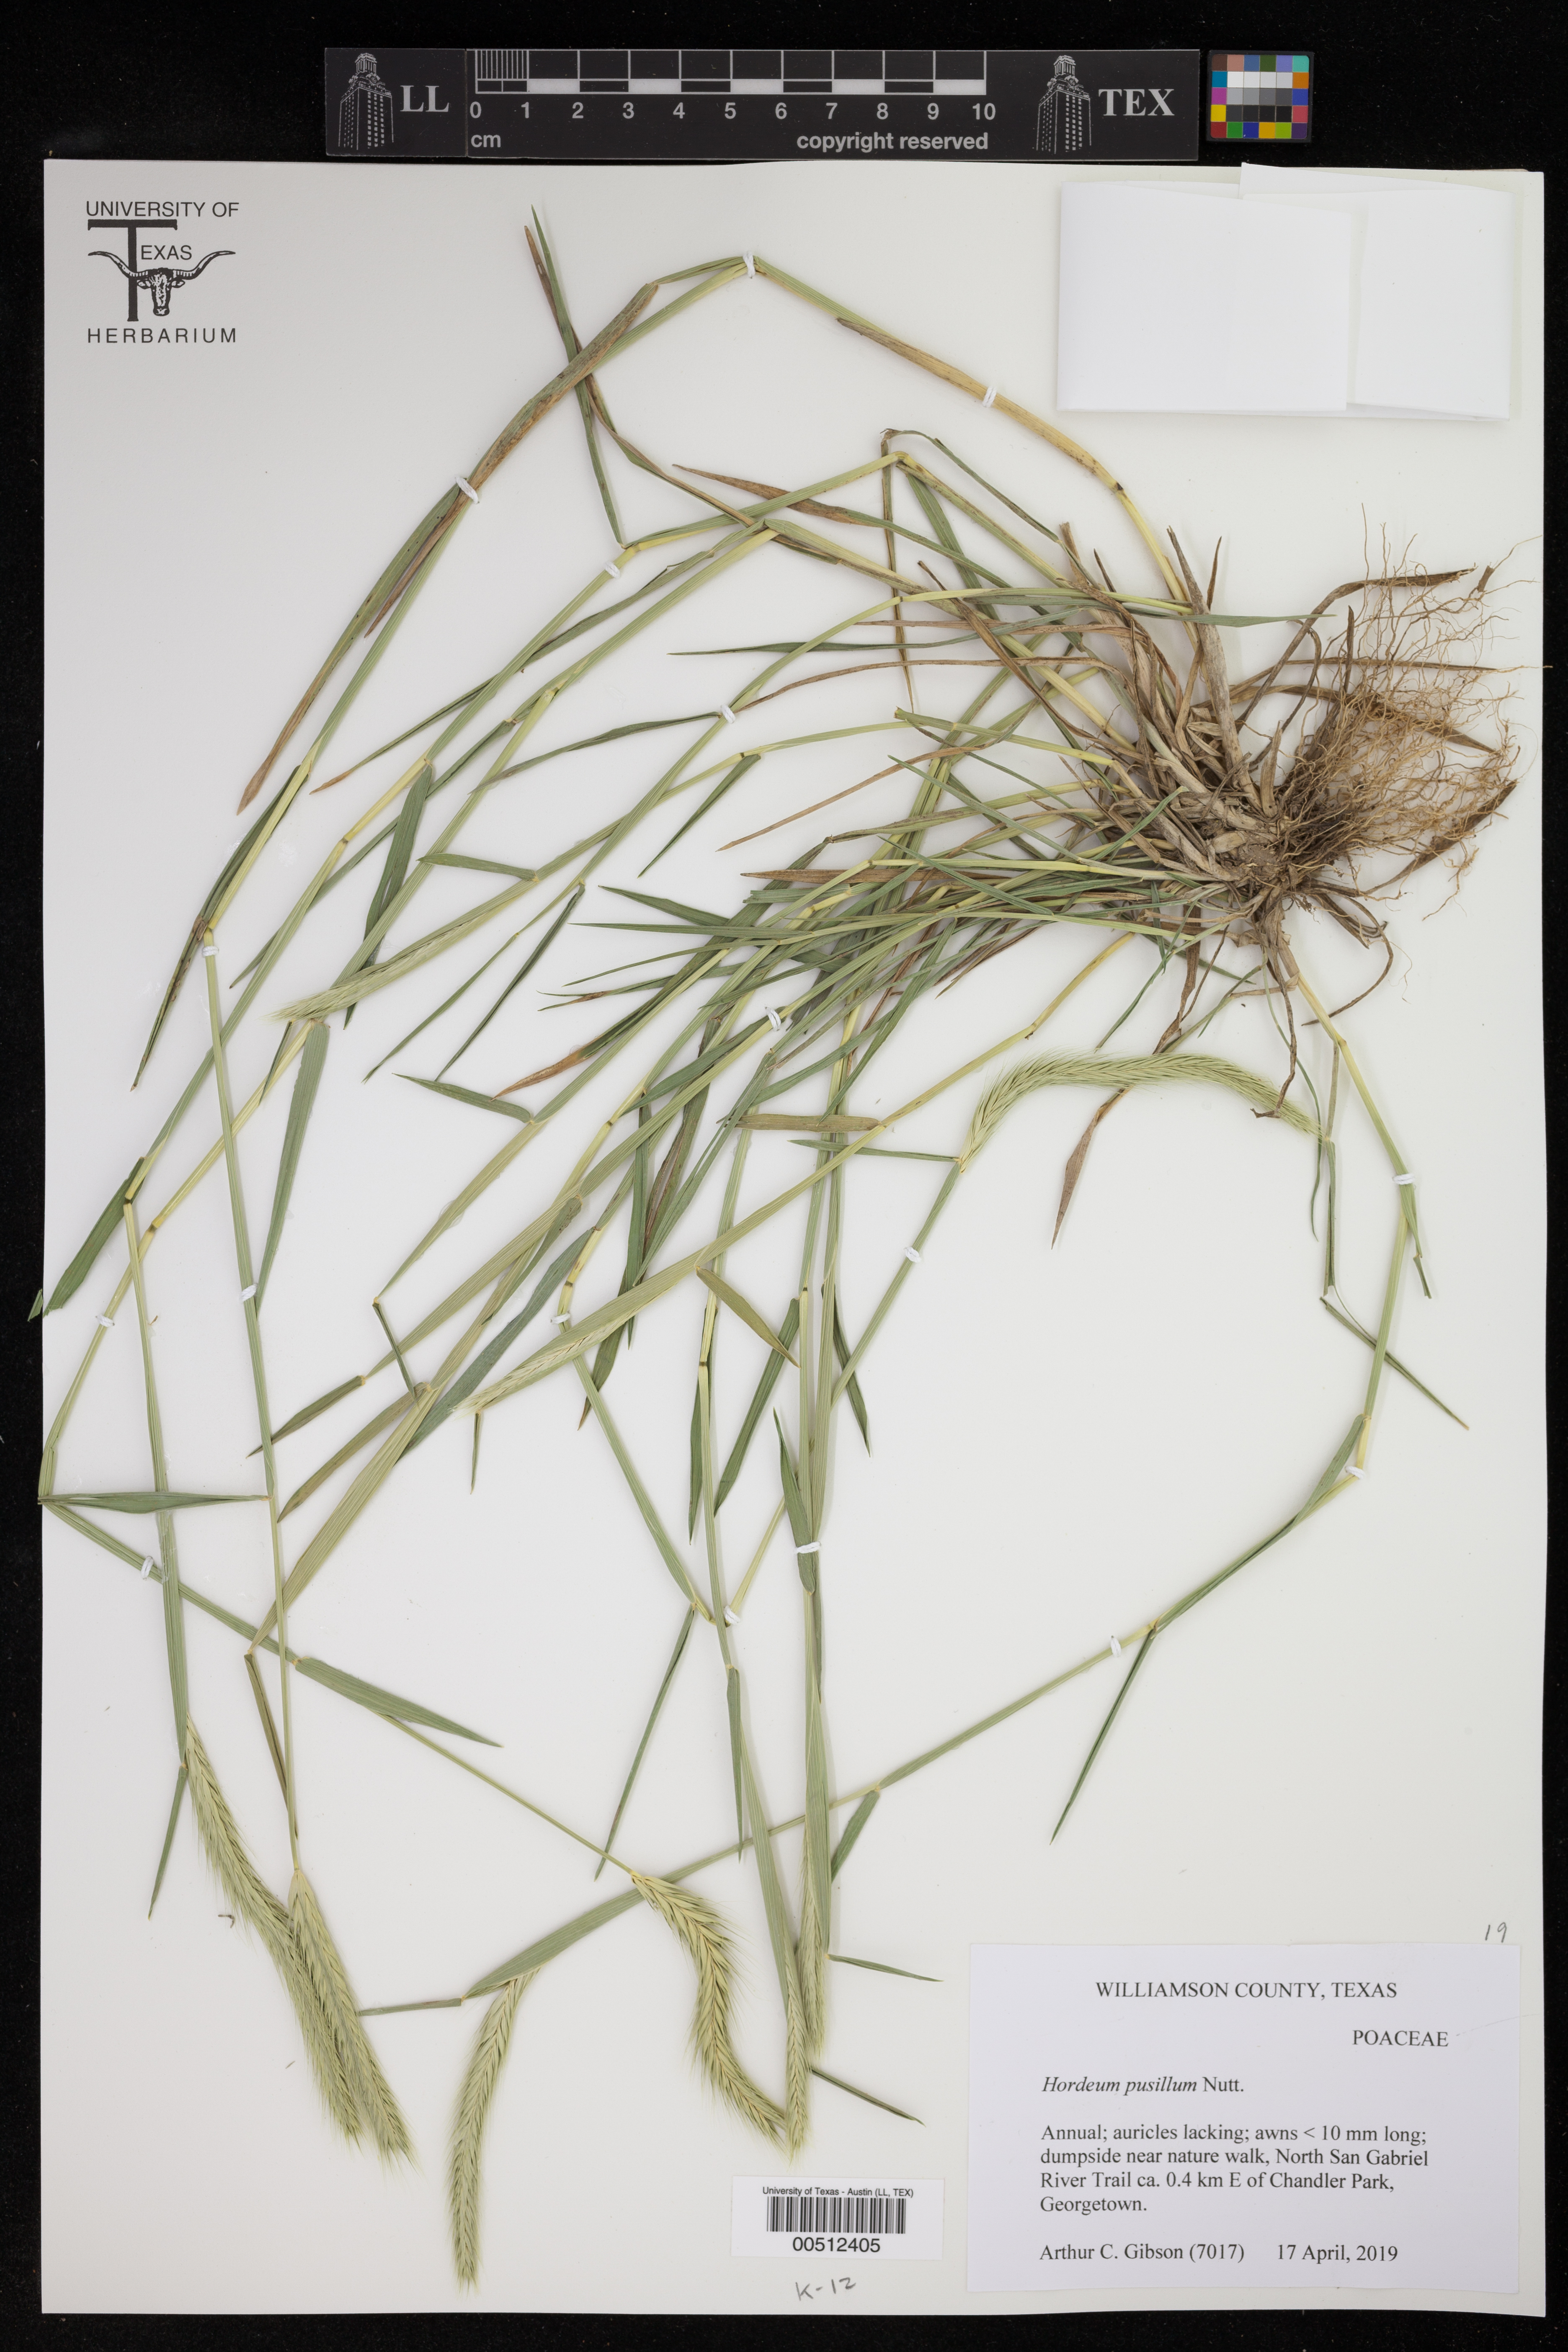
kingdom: Plantae
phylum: Tracheophyta
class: Liliopsida
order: Poales
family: Poaceae
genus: Hordeum
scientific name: Hordeum pusillum
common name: Little barley
